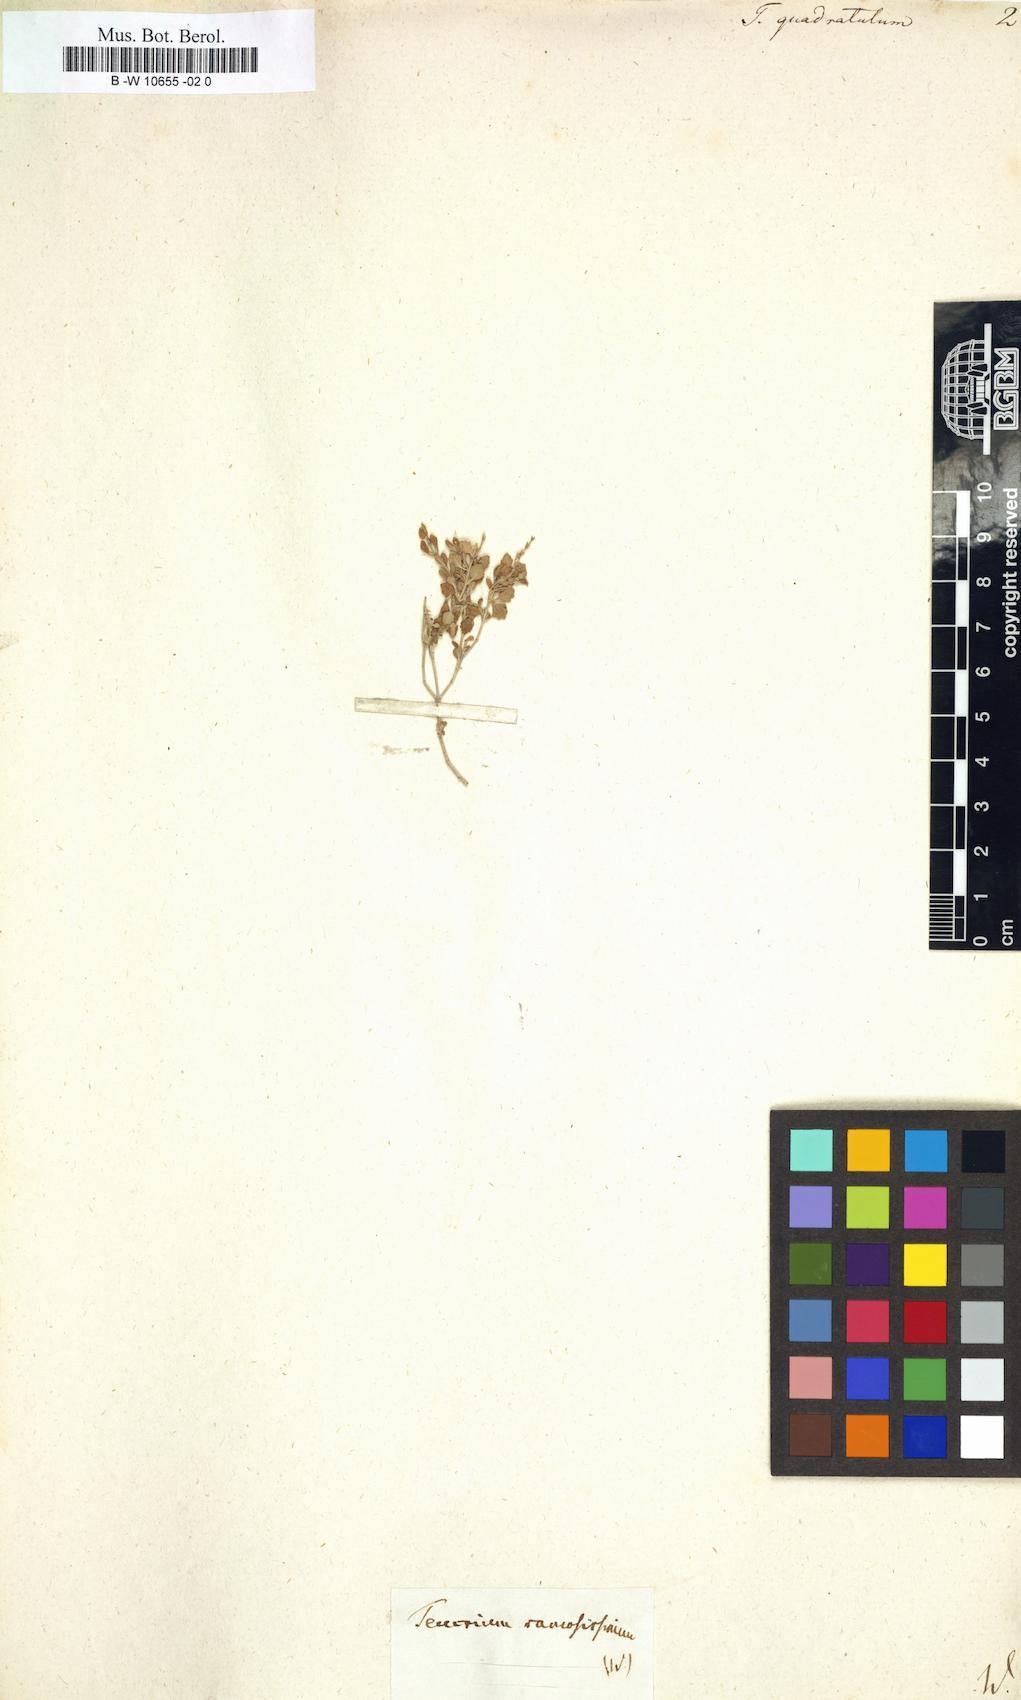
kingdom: Plantae
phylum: Tracheophyta
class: Magnoliopsida
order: Lamiales
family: Lamiaceae
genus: Teucrium
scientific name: Teucrium
